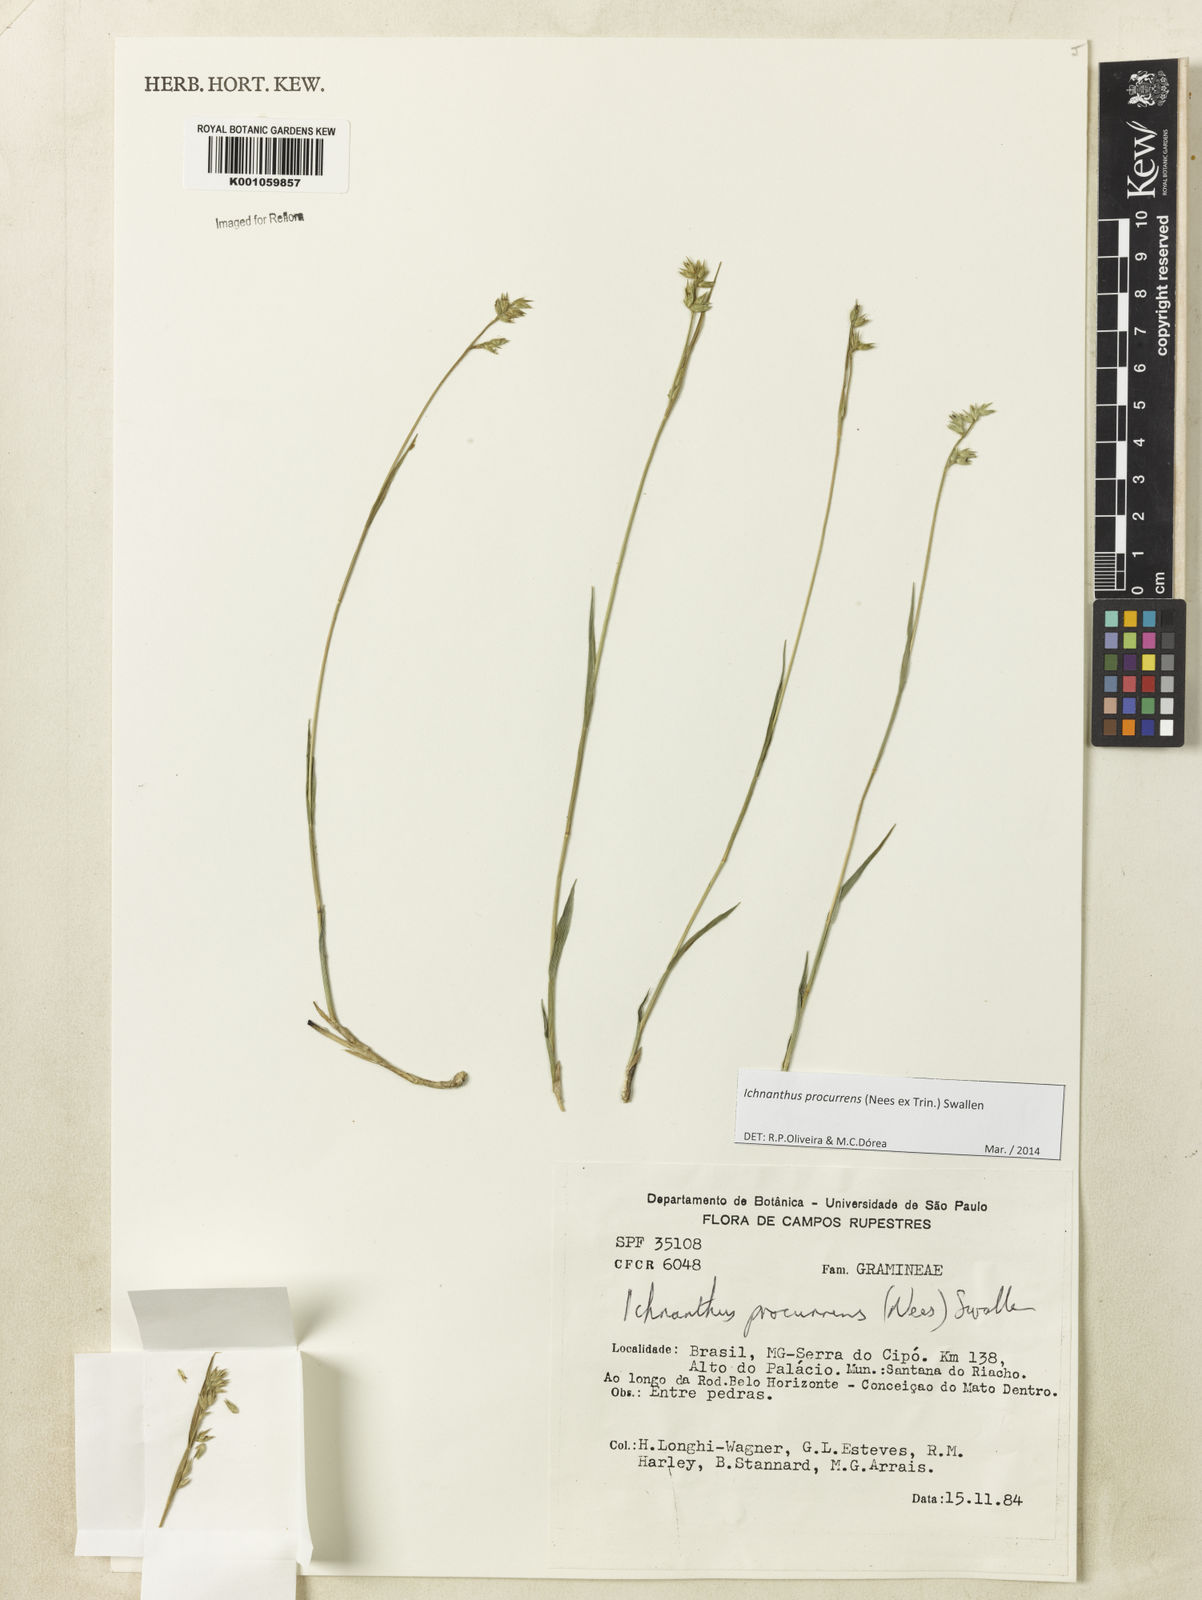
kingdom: Plantae
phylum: Tracheophyta
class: Liliopsida
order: Poales
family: Poaceae
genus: Oedochloa
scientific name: Oedochloa procurrens
